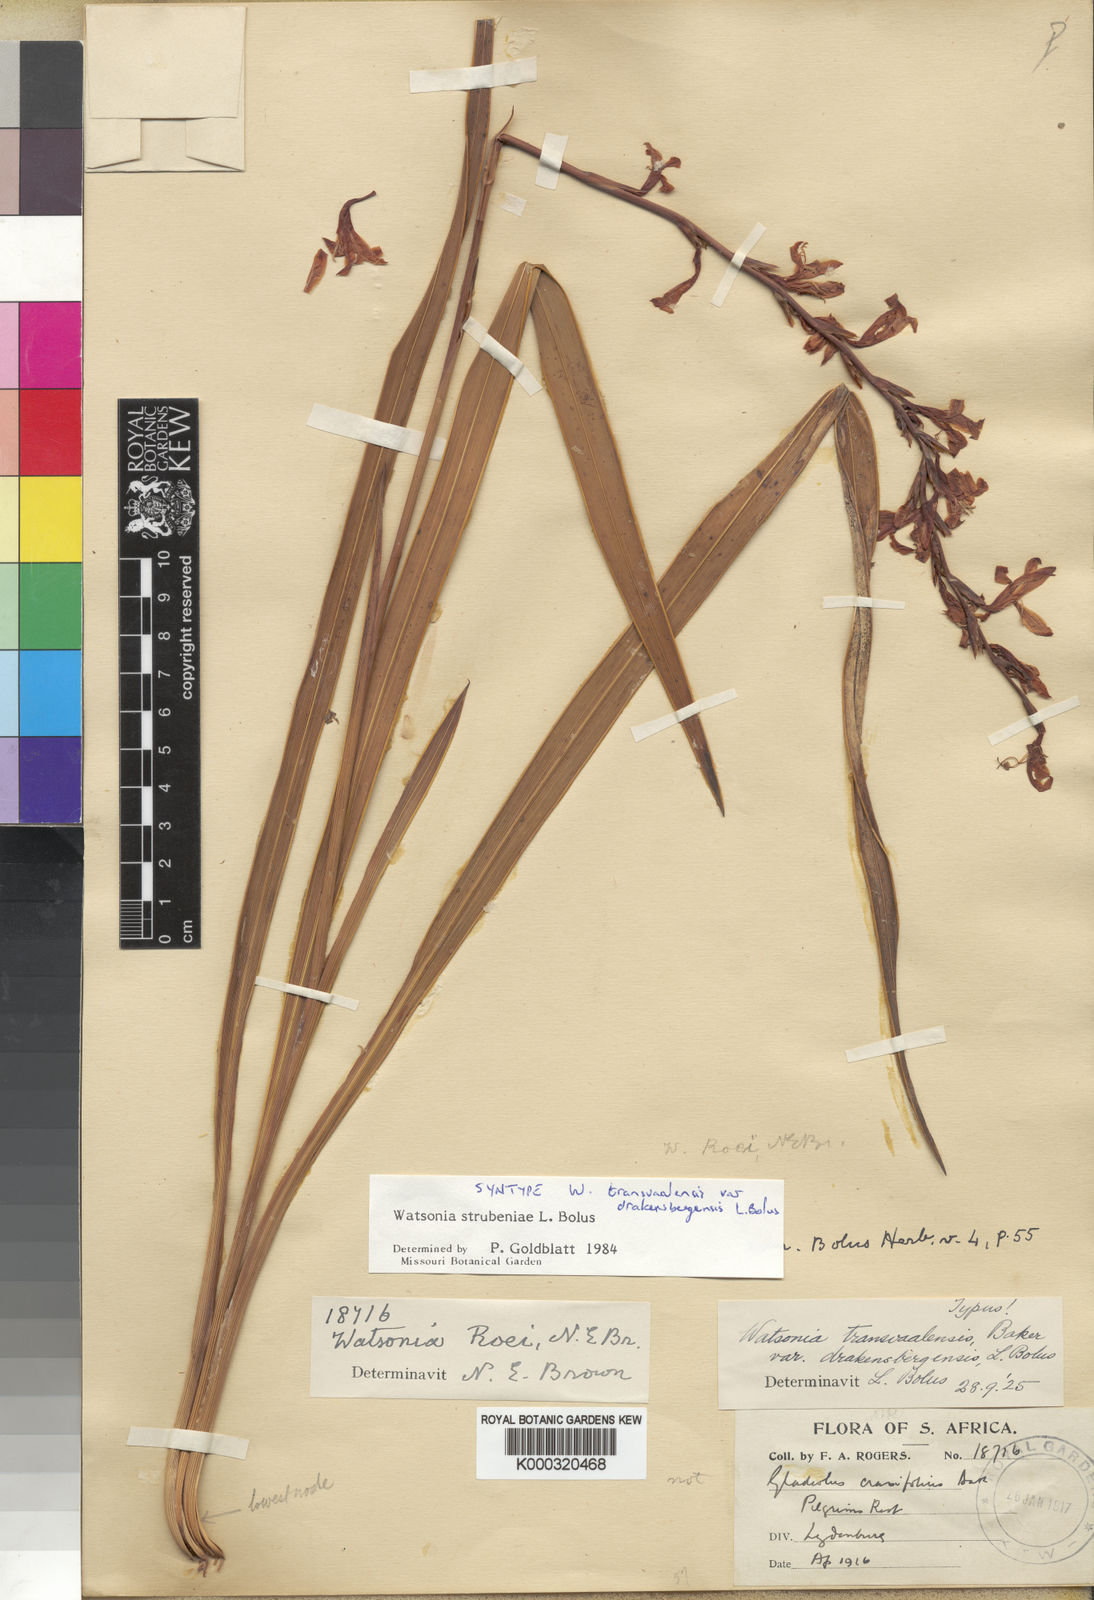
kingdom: Plantae
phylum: Tracheophyta
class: Liliopsida
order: Asparagales
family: Iridaceae
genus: Watsonia
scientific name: Watsonia strubeniae
